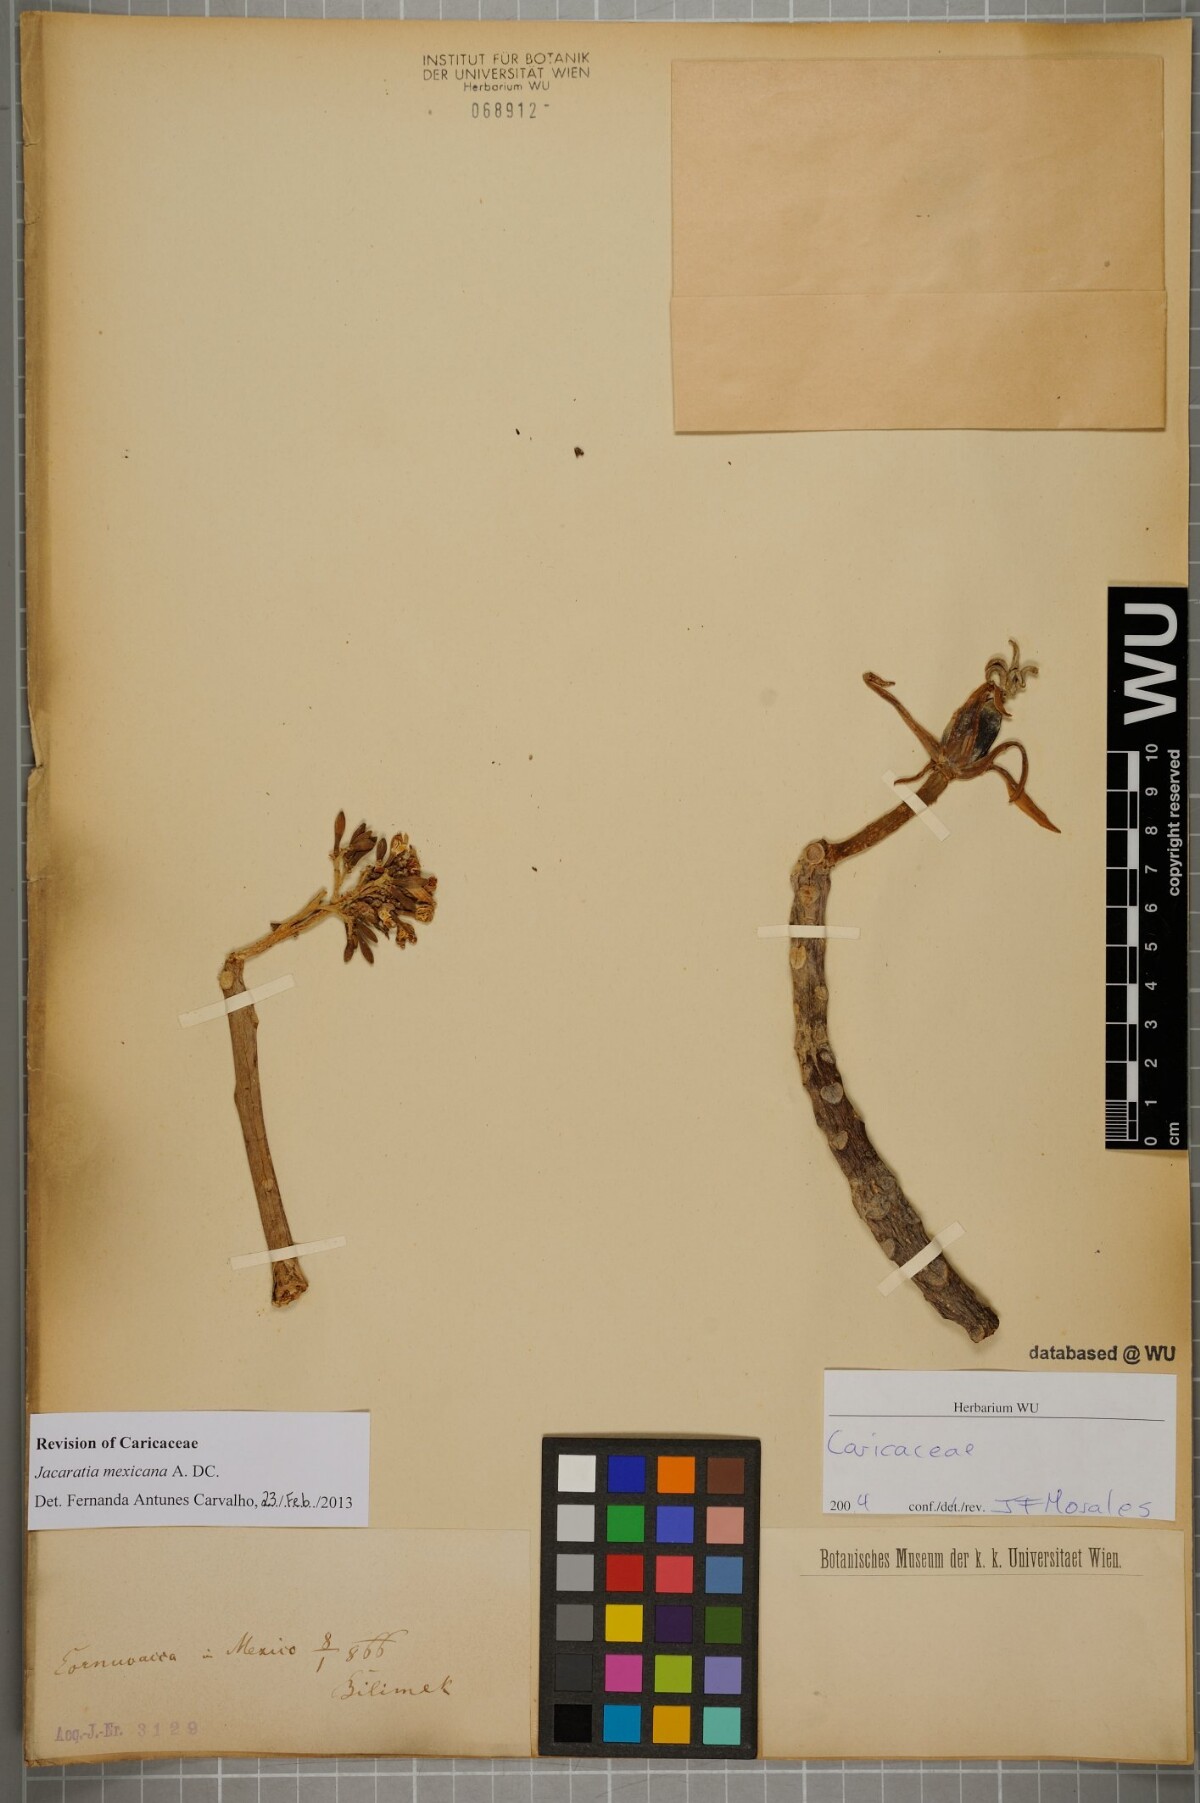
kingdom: Plantae
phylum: Tracheophyta
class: Magnoliopsida
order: Brassicales
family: Caricaceae
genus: Jacaratia
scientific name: Jacaratia mexicana
